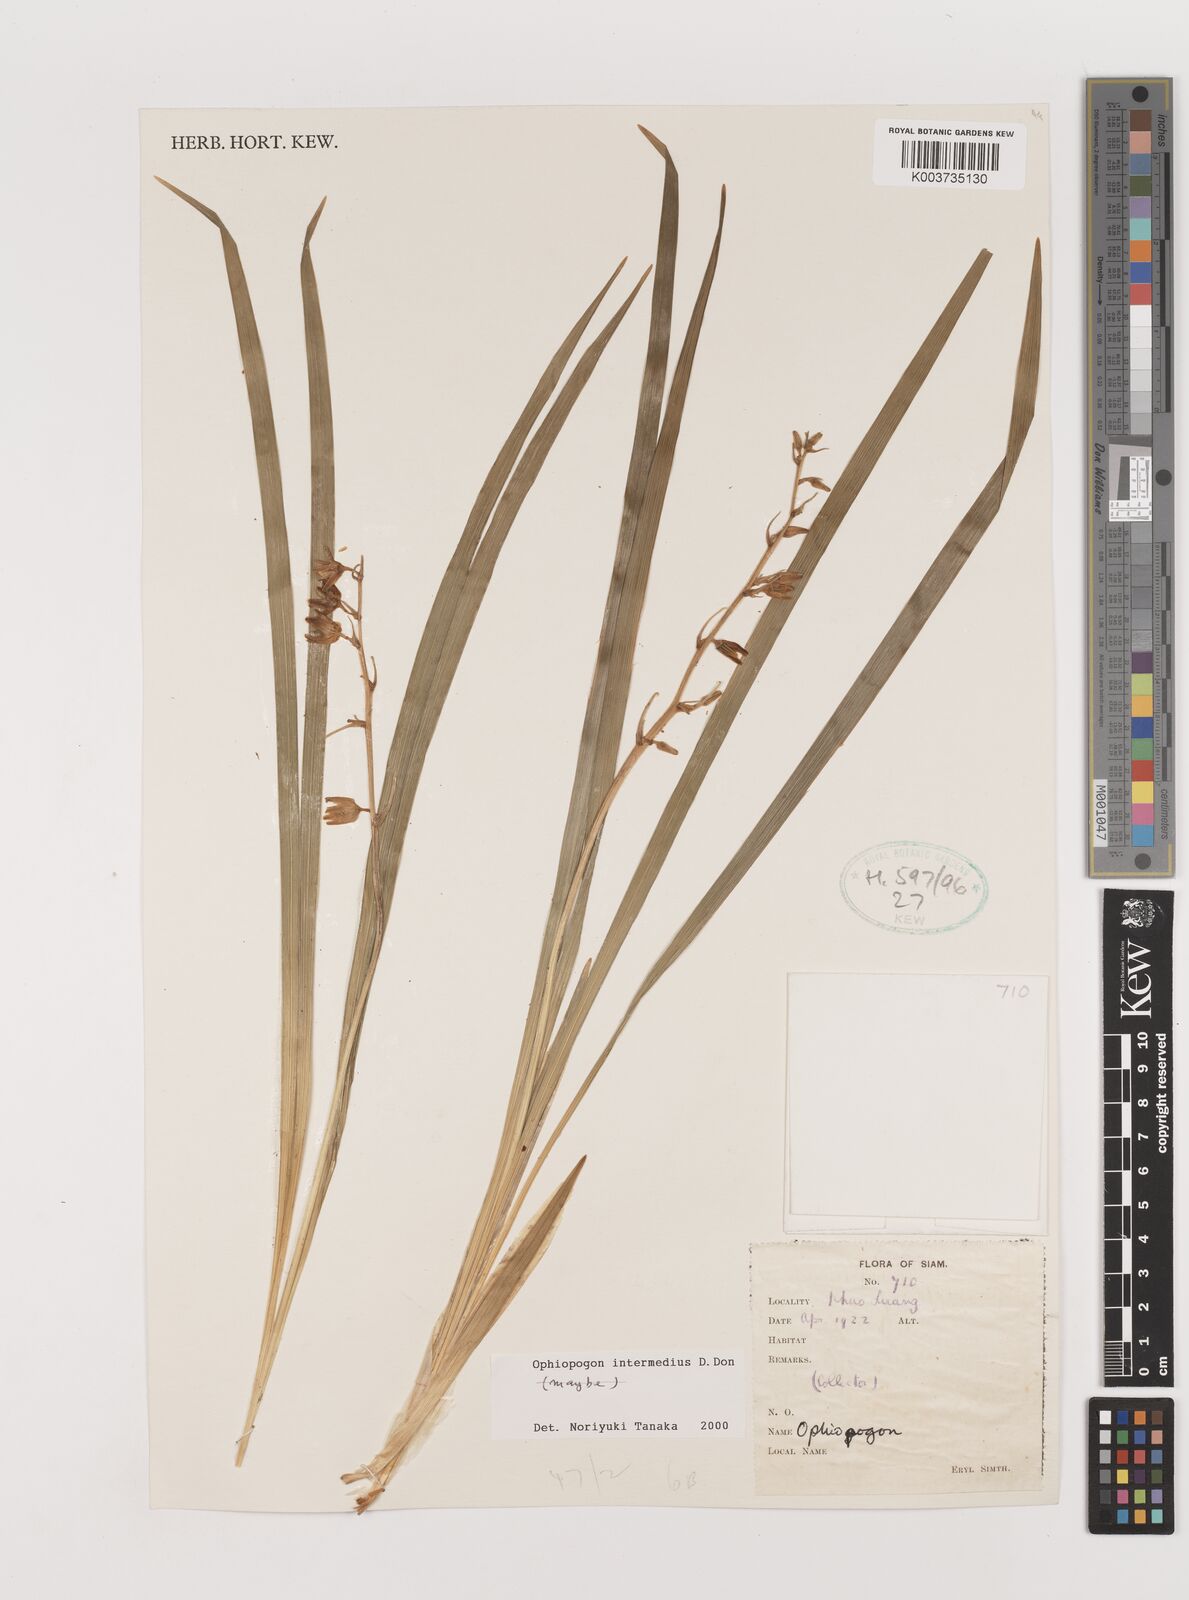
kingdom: Plantae
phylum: Tracheophyta
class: Liliopsida
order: Asparagales
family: Asparagaceae
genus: Ophiopogon
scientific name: Ophiopogon japonicus
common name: Dwarf lilyturf
